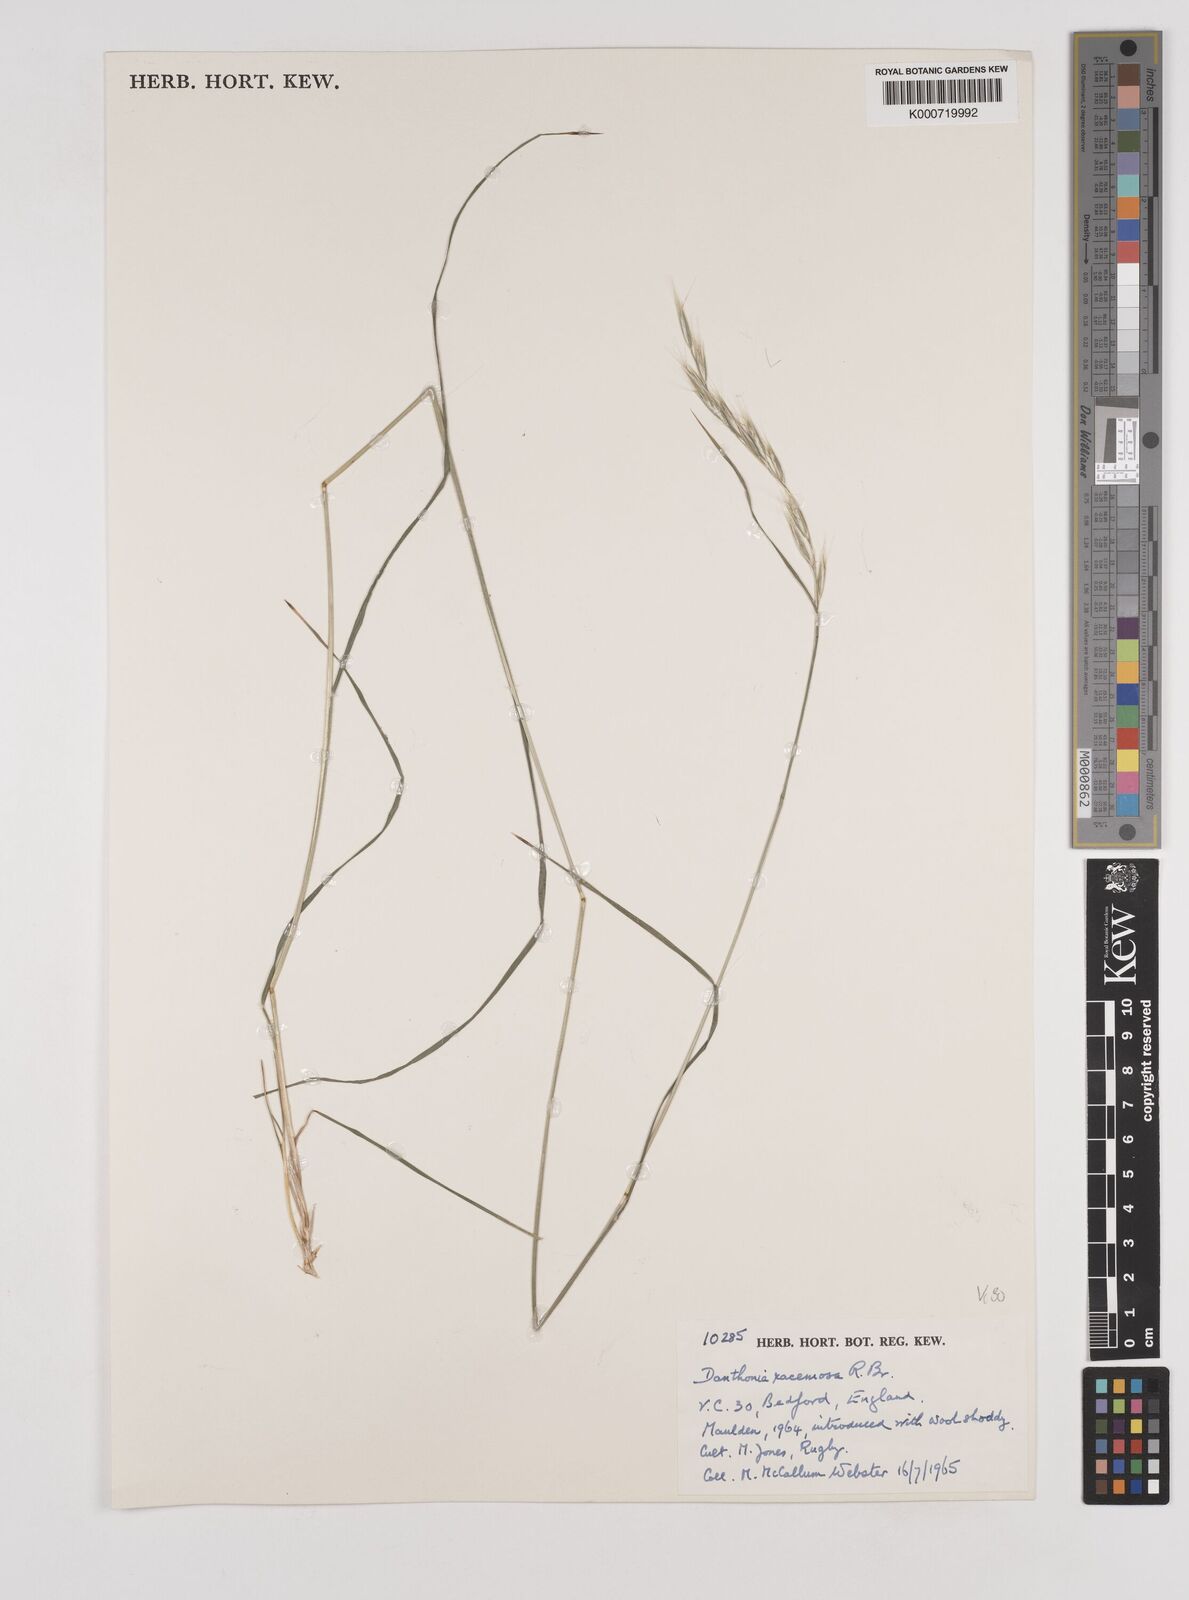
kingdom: Plantae
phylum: Tracheophyta
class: Liliopsida
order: Poales
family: Poaceae
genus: Rytidosperma
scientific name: Rytidosperma racemosum
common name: Wallaby-grass
